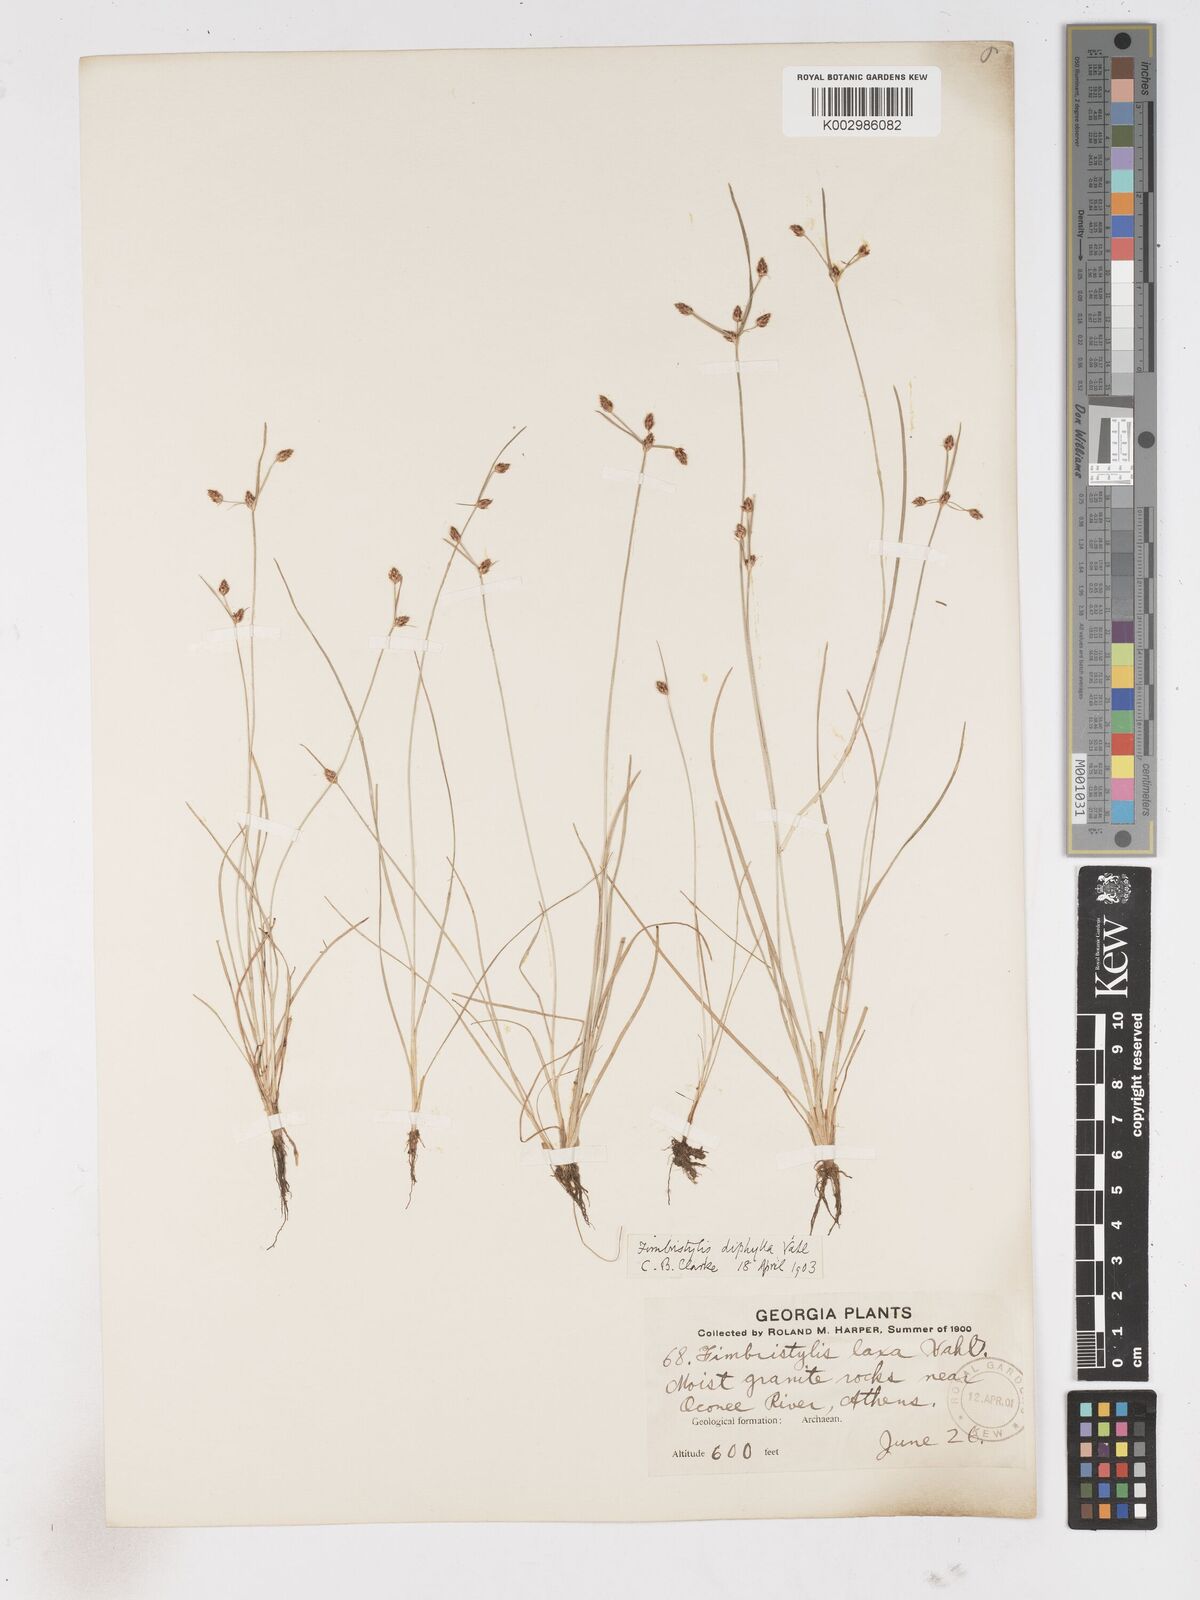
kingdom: Plantae
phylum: Tracheophyta
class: Liliopsida
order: Poales
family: Cyperaceae
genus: Fimbristylis
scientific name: Fimbristylis dichotoma
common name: Forked fimbry
